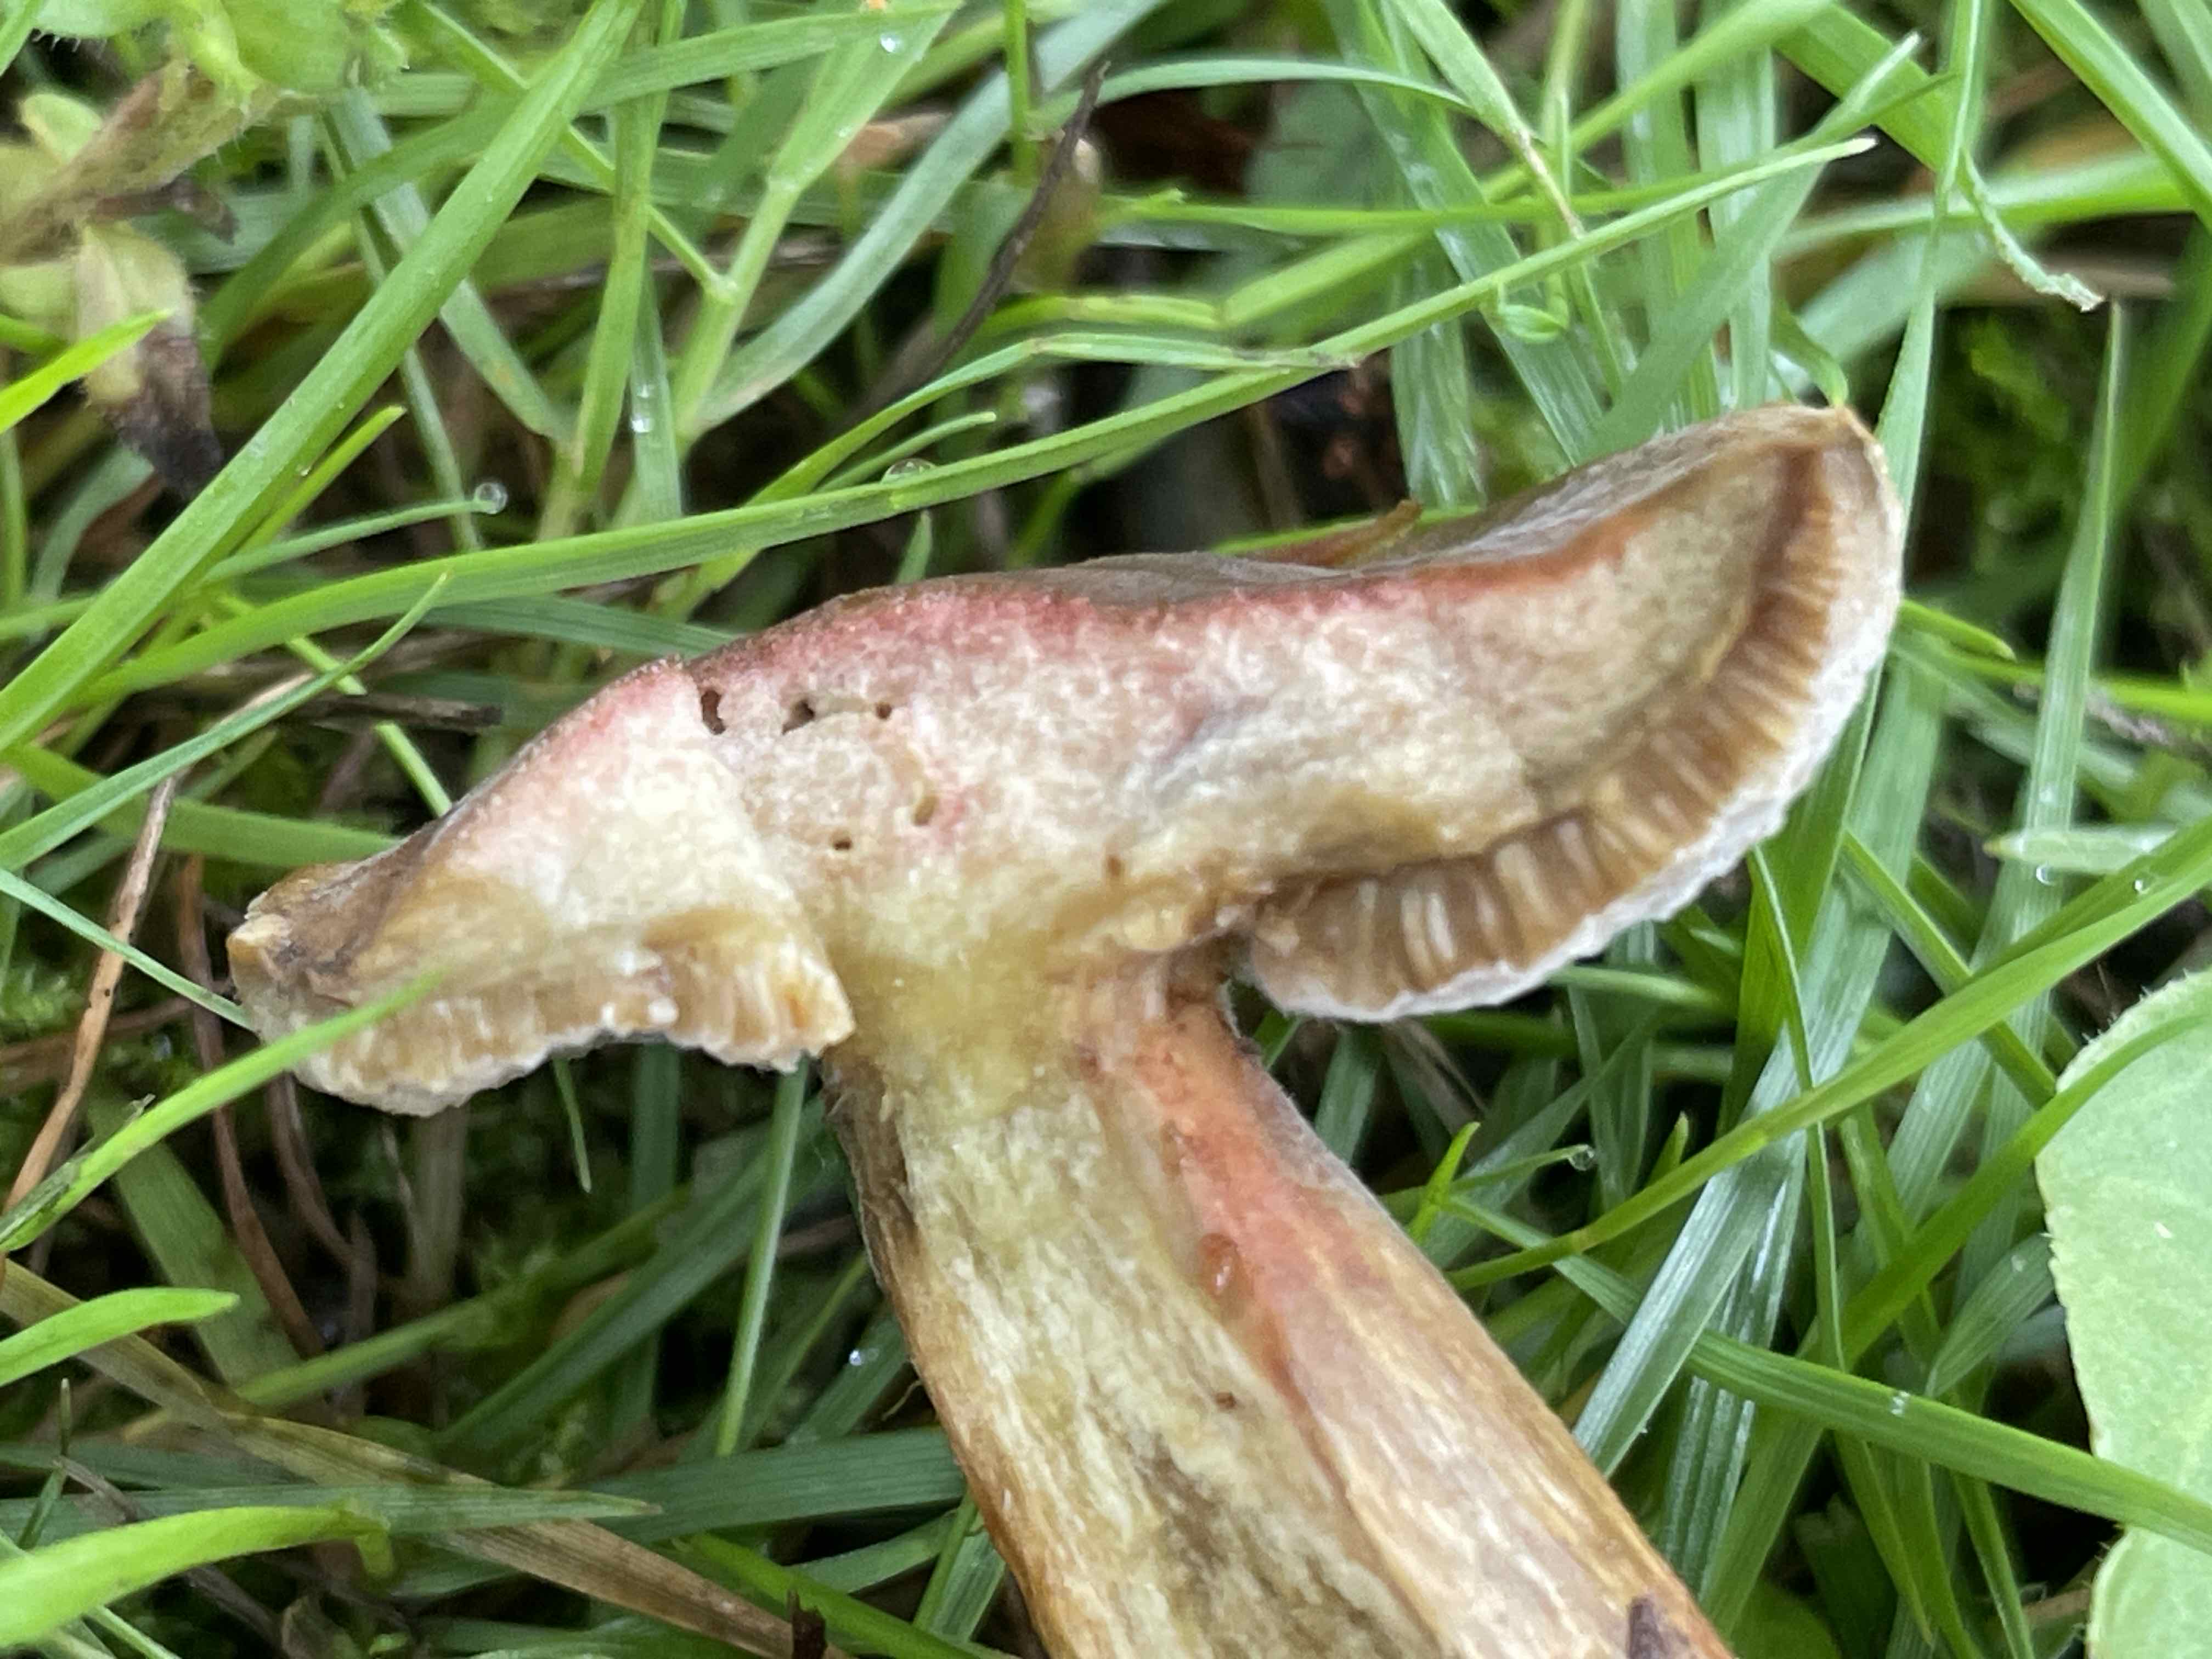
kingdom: Fungi
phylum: Basidiomycota
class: Agaricomycetes
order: Boletales
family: Boletaceae
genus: Hortiboletus
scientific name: Hortiboletus bubalinus
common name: aurora-rørhat
